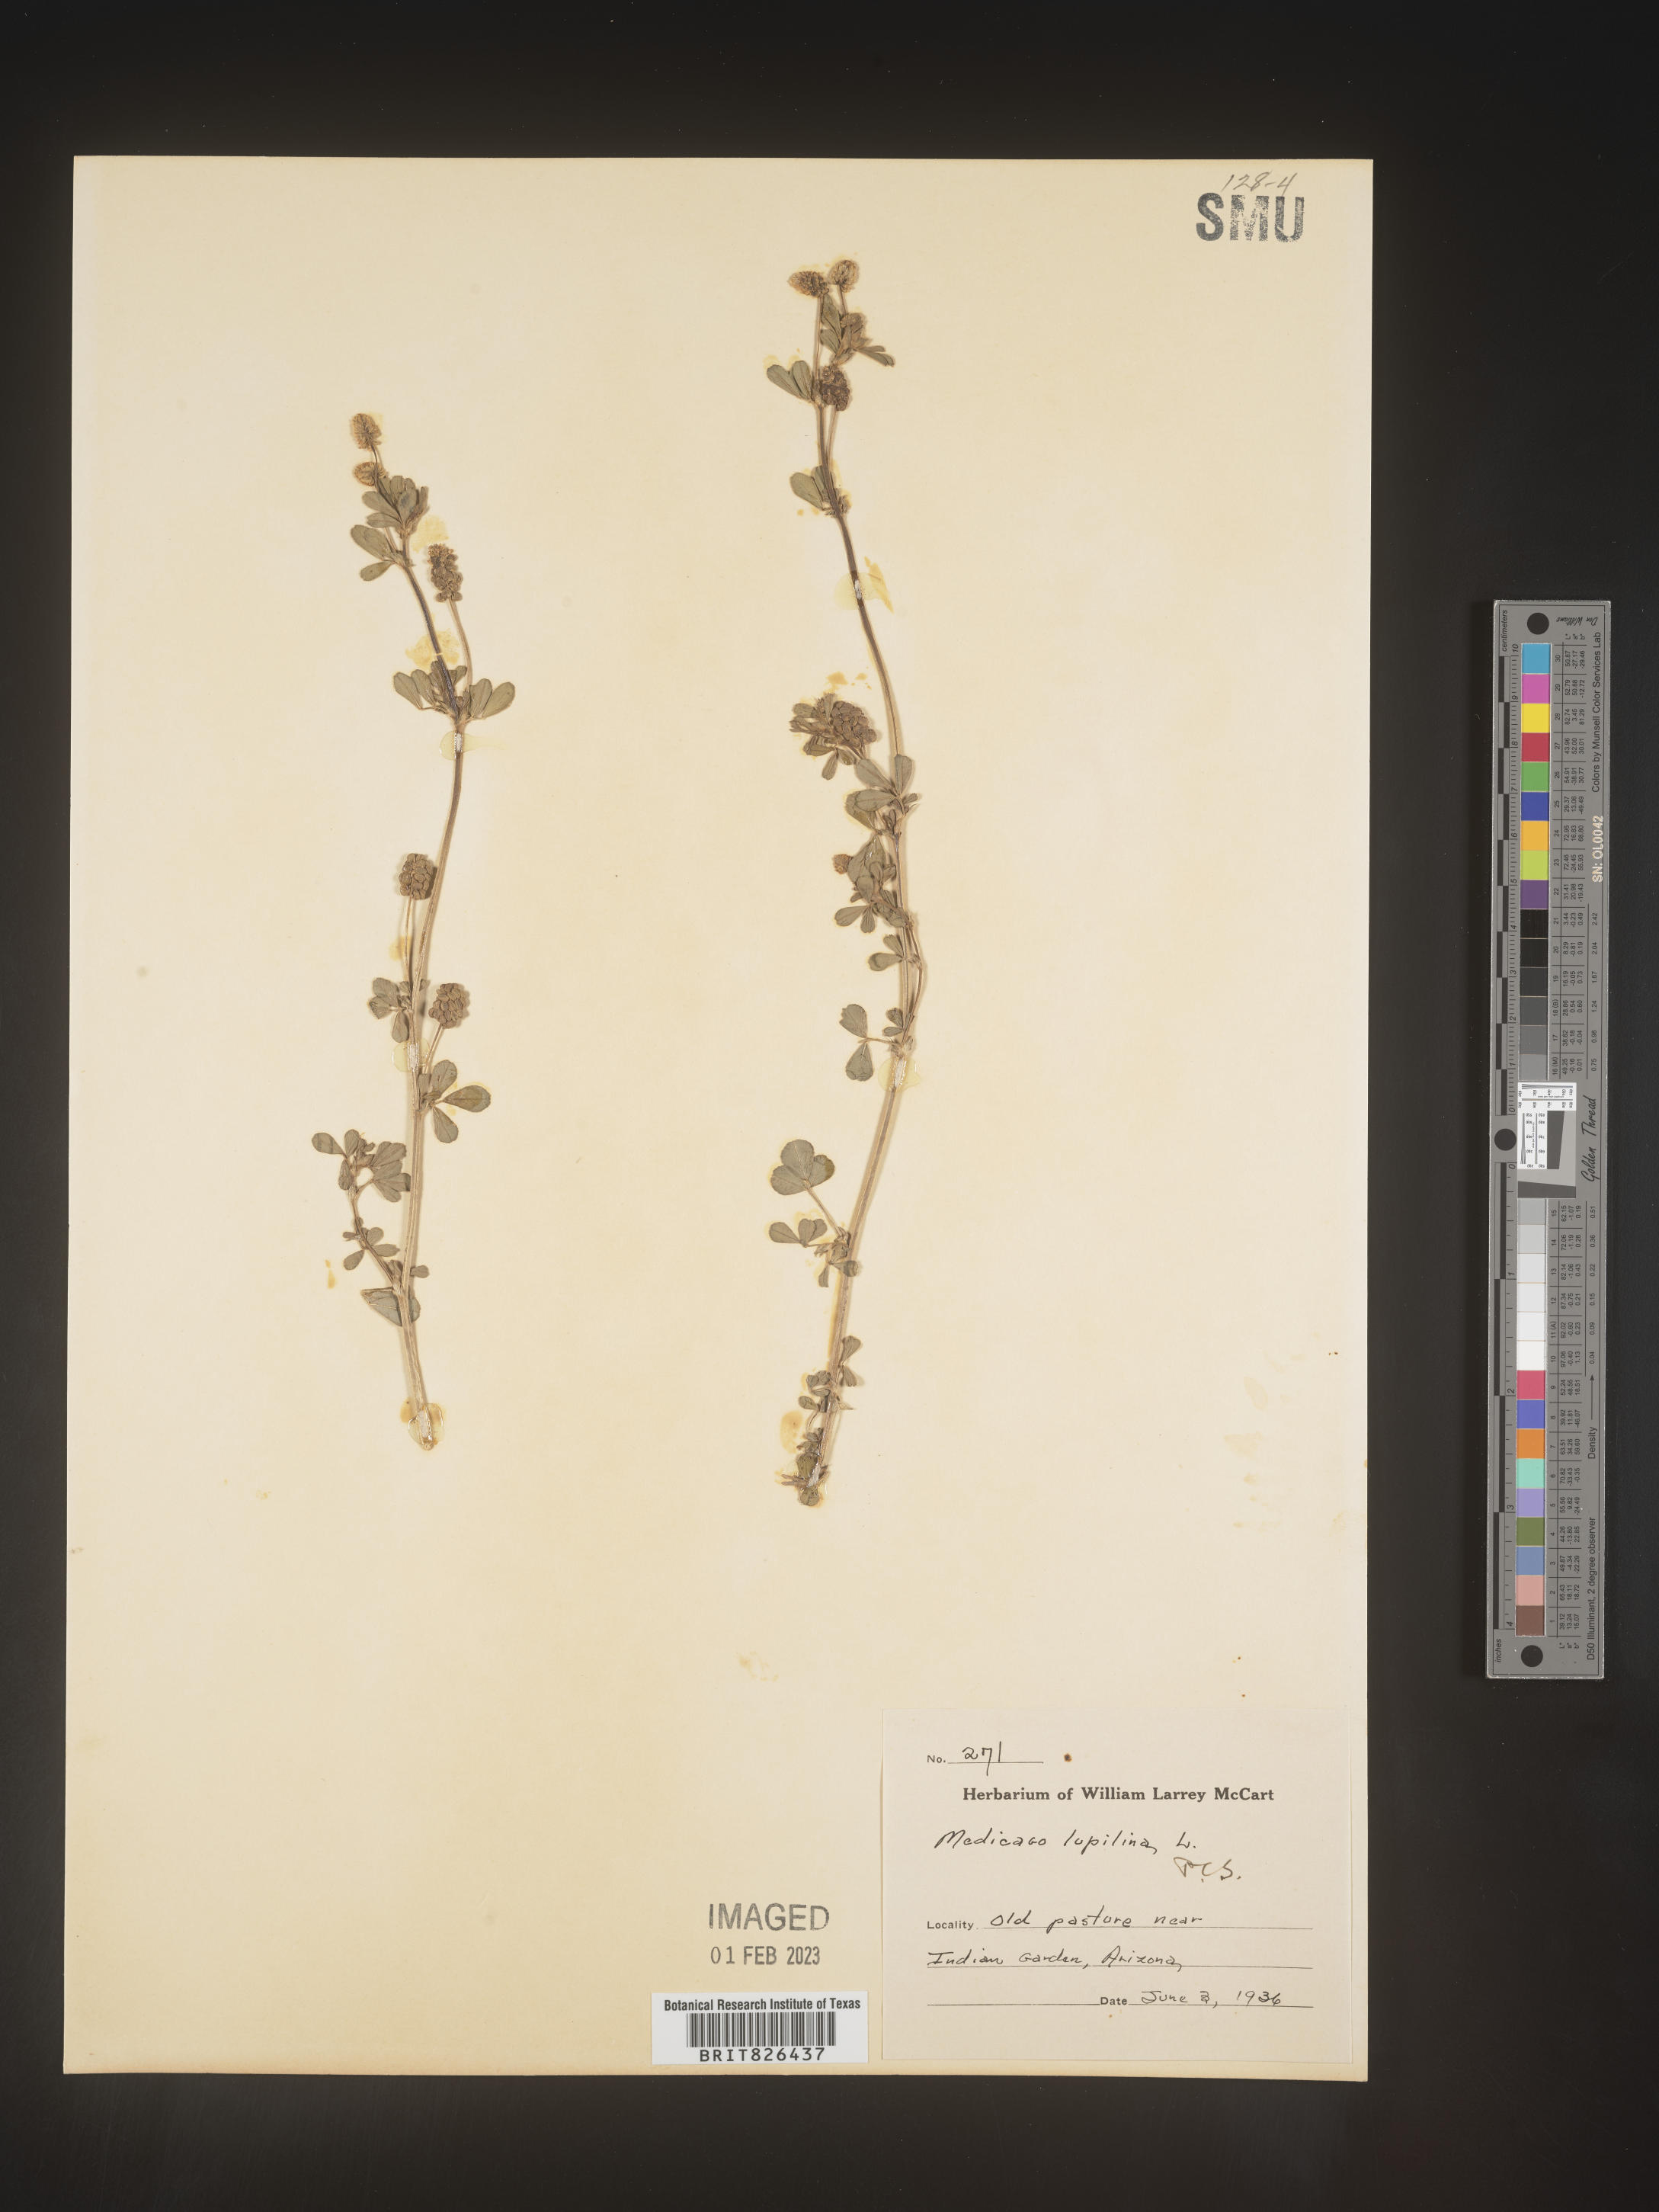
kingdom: Plantae
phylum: Tracheophyta
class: Magnoliopsida
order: Fabales
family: Fabaceae
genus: Medicago
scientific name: Medicago lupulina
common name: Black medick
